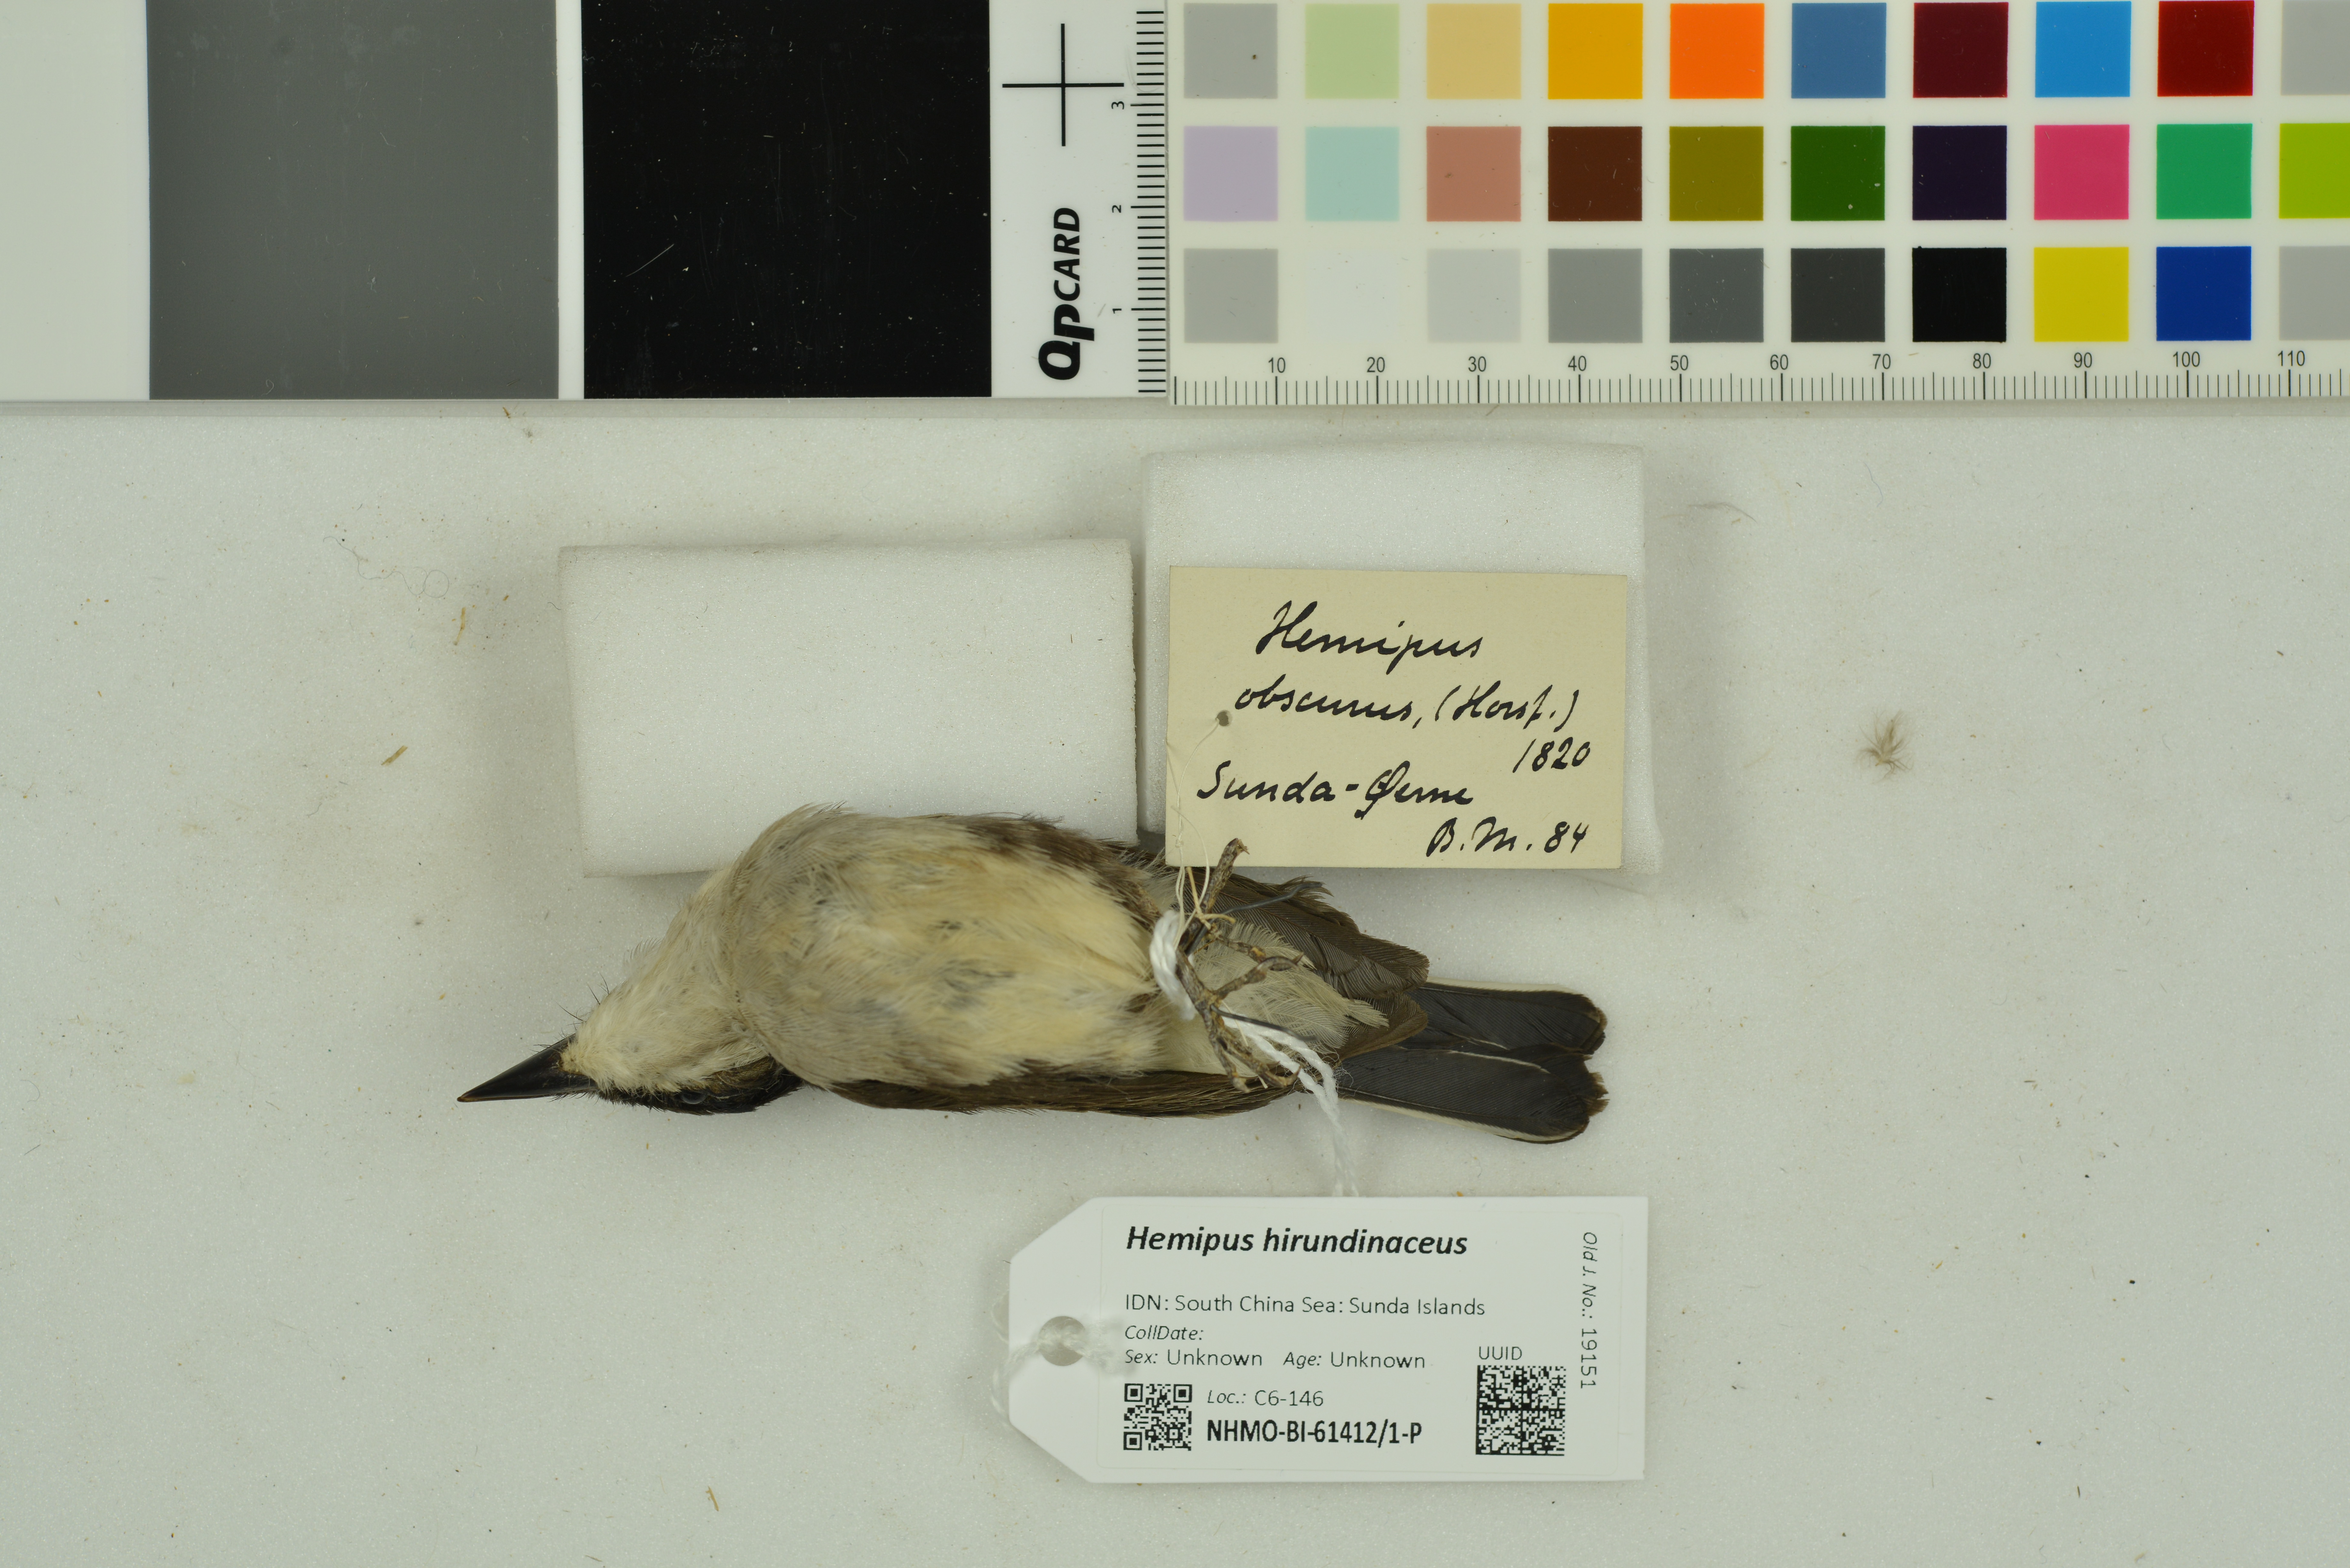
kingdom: Animalia
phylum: Chordata
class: Aves
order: Passeriformes
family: Tephrodornithidae
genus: Hemipus
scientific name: Hemipus hirundinaceus
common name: Black-winged flycatcher-shrike
